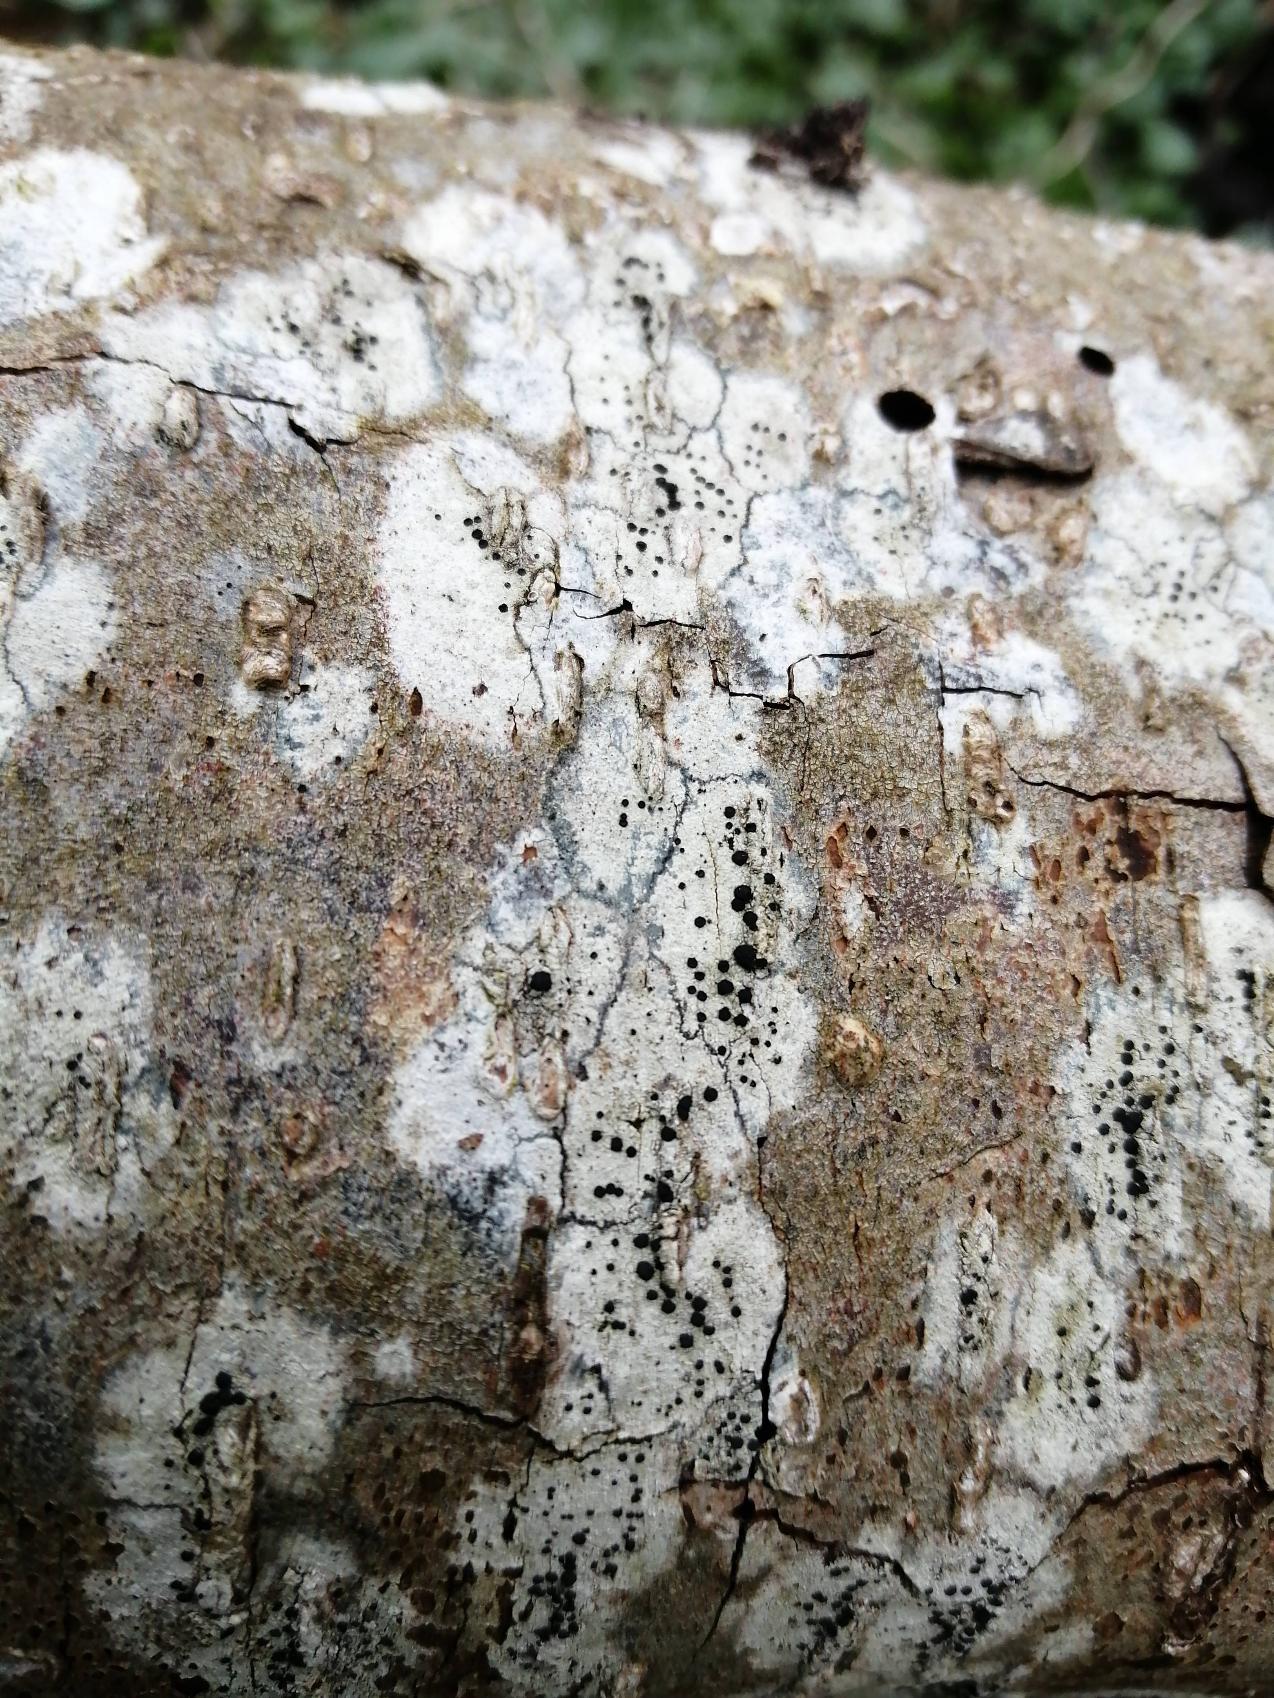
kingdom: Fungi
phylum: Ascomycota
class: Lecanoromycetes
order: Lecanorales
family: Lecanoraceae
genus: Lecidella
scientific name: Lecidella elaeochroma
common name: Grågrøn skivelav
